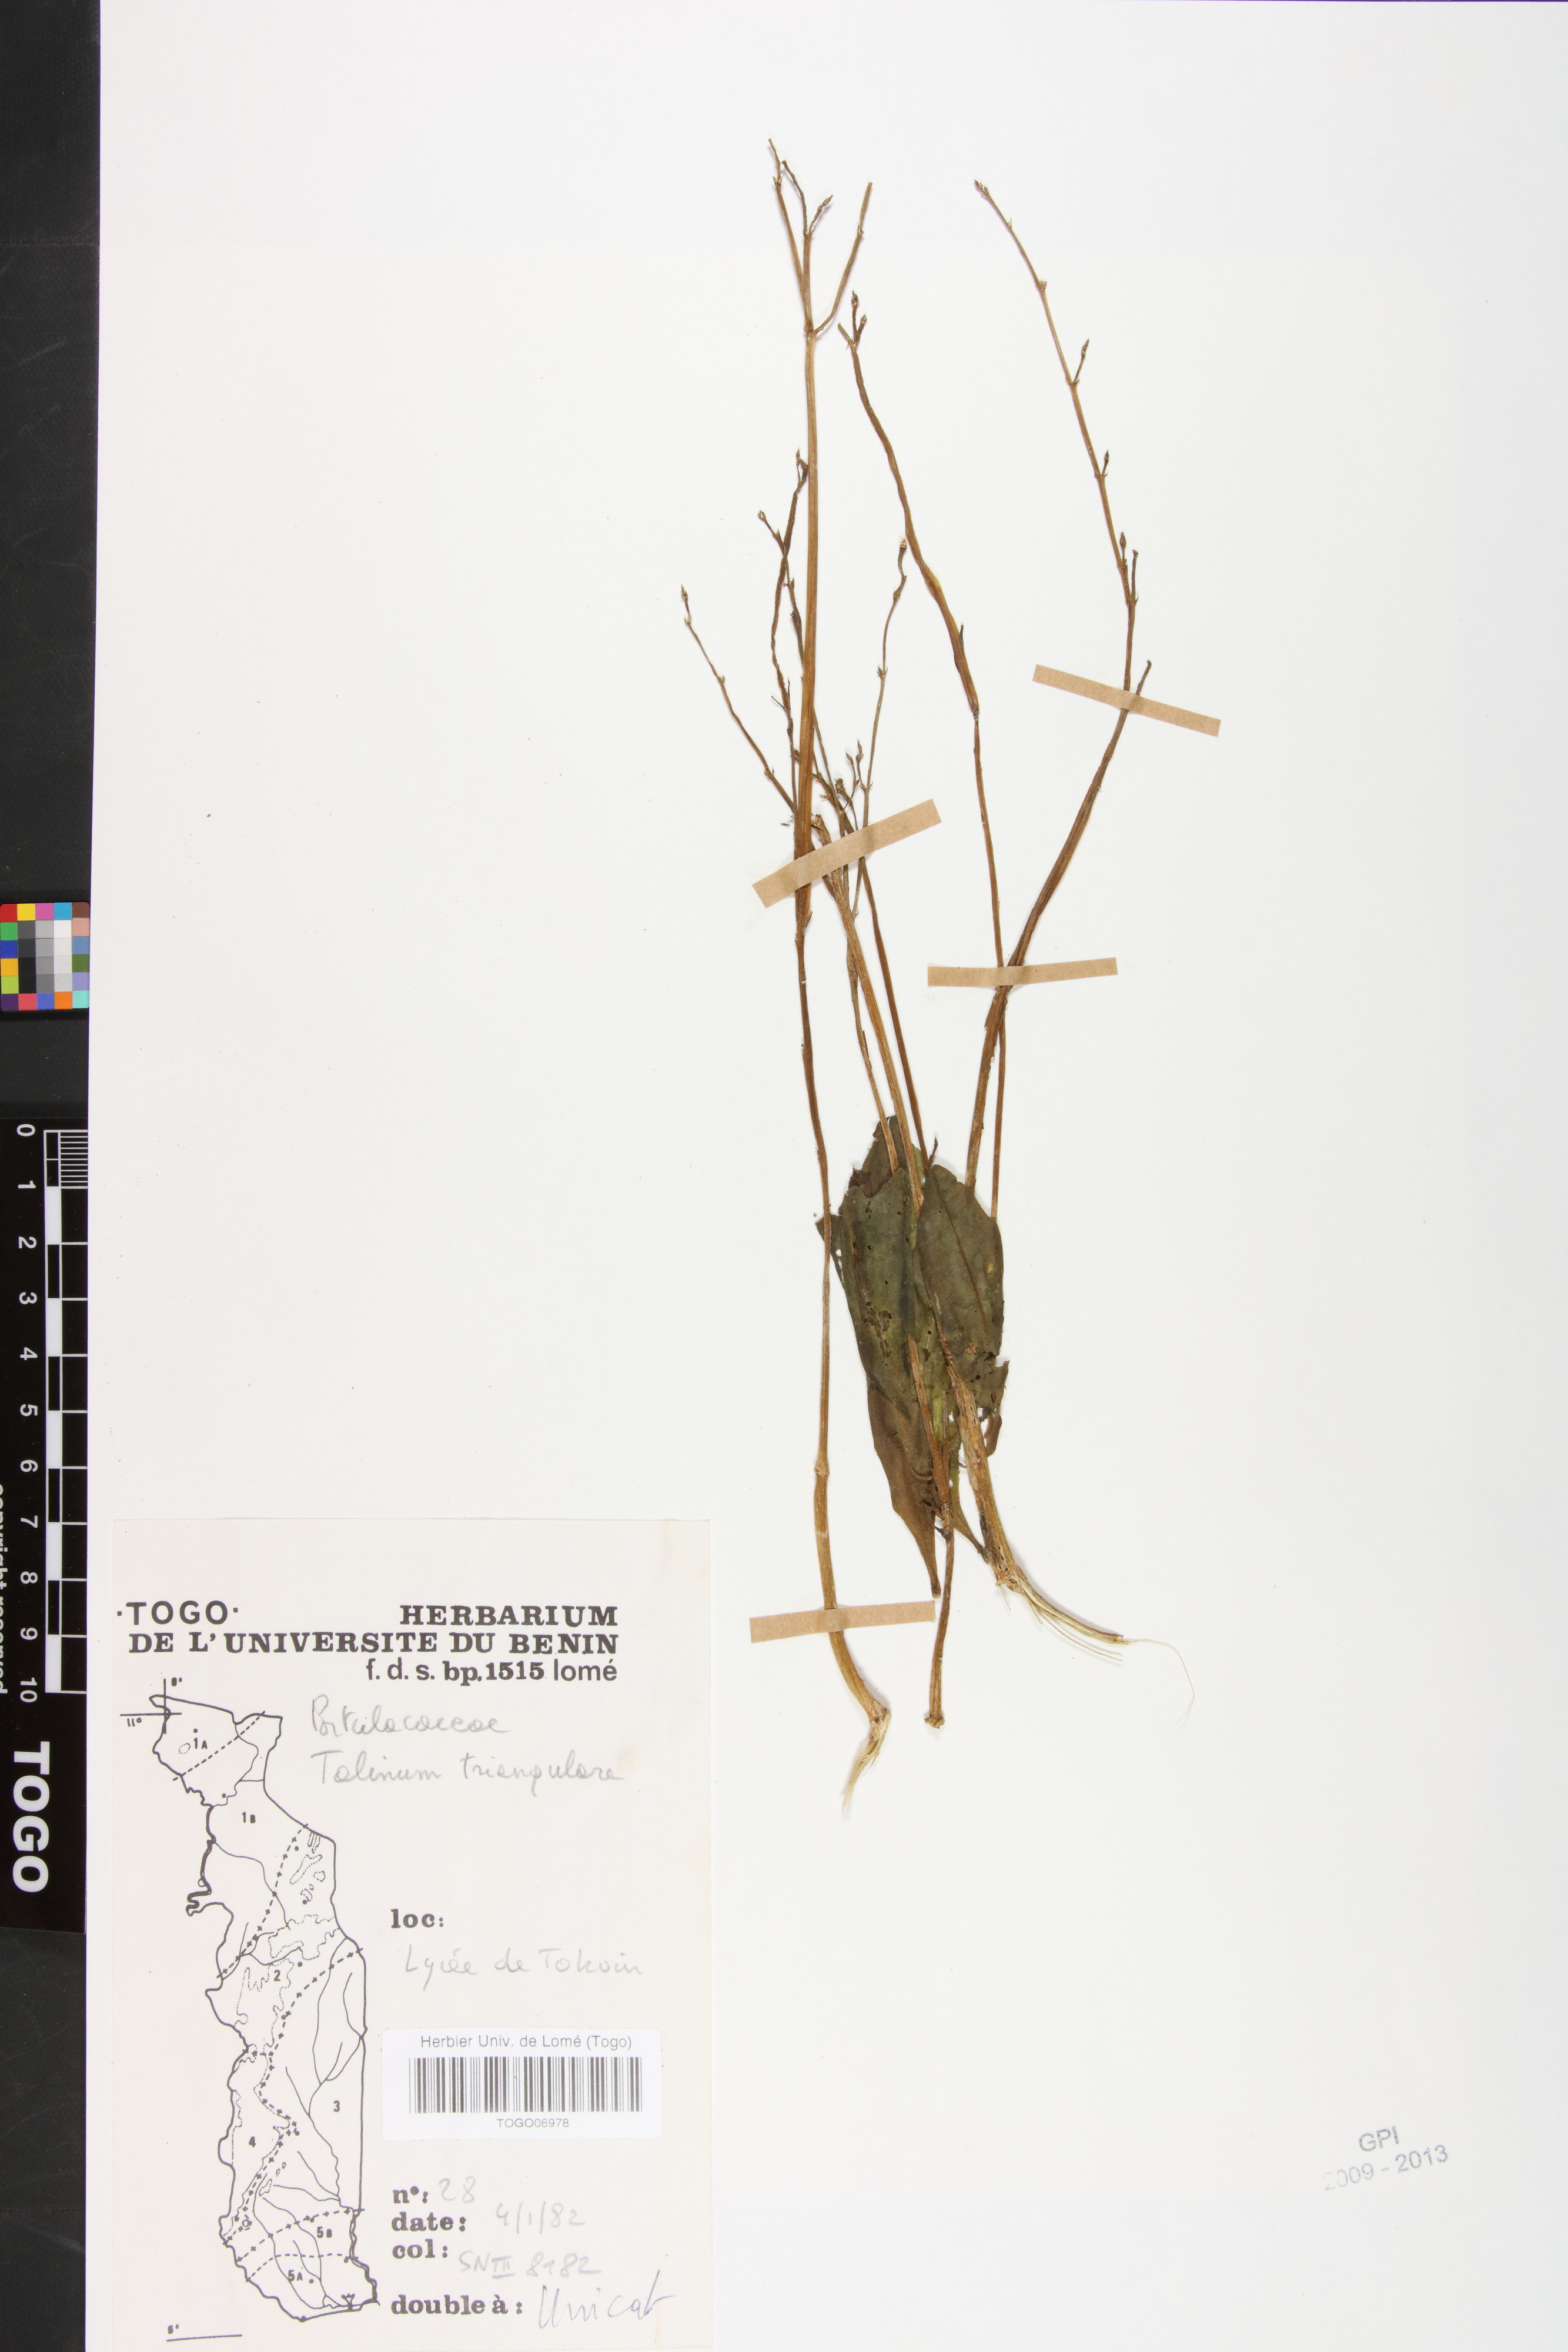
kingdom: Plantae
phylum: Tracheophyta
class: Magnoliopsida
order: Caryophyllales
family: Talinaceae
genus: Talinum
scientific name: Talinum fruticosum
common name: Verdolaga-francesa
